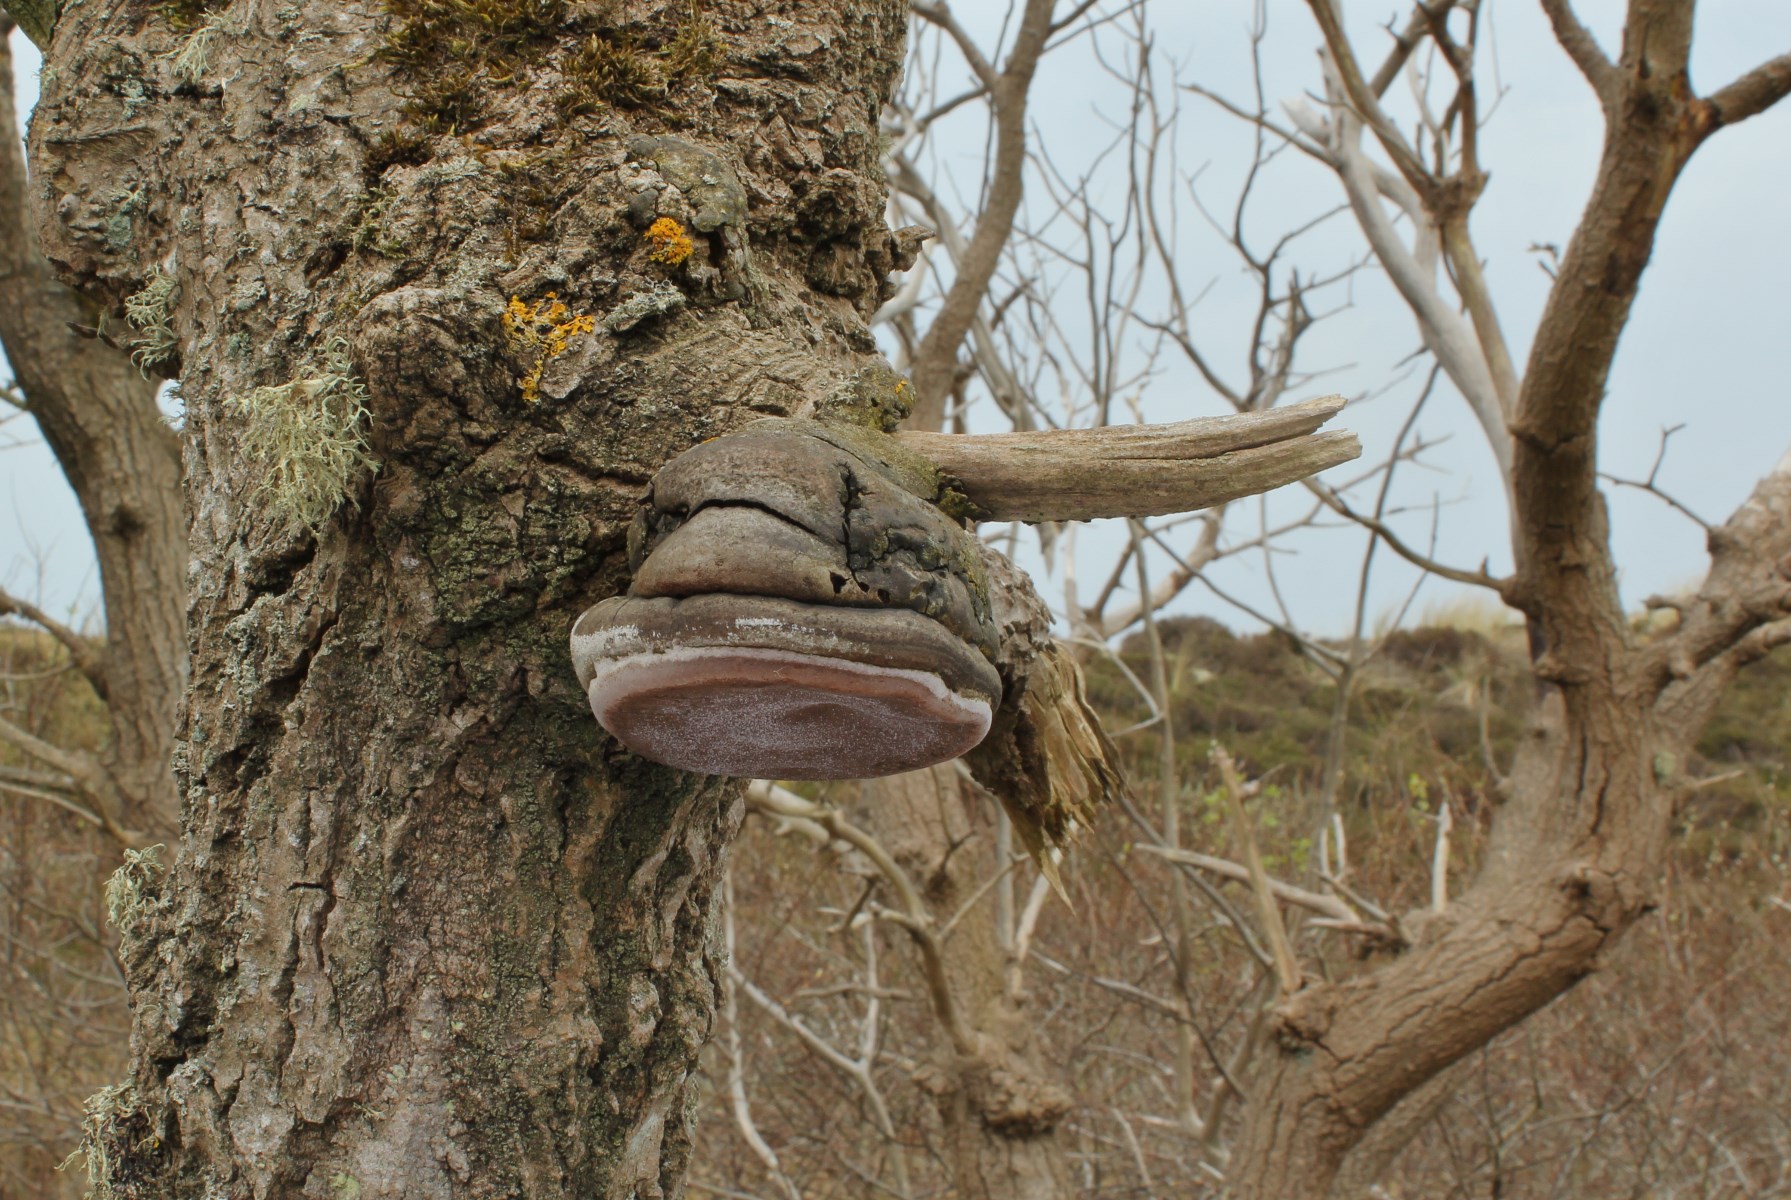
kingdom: Fungi
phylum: Basidiomycota
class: Agaricomycetes
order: Hymenochaetales
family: Hymenochaetaceae
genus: Phellinus
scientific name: Phellinus tremulae
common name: aspe-ildporesvamp
